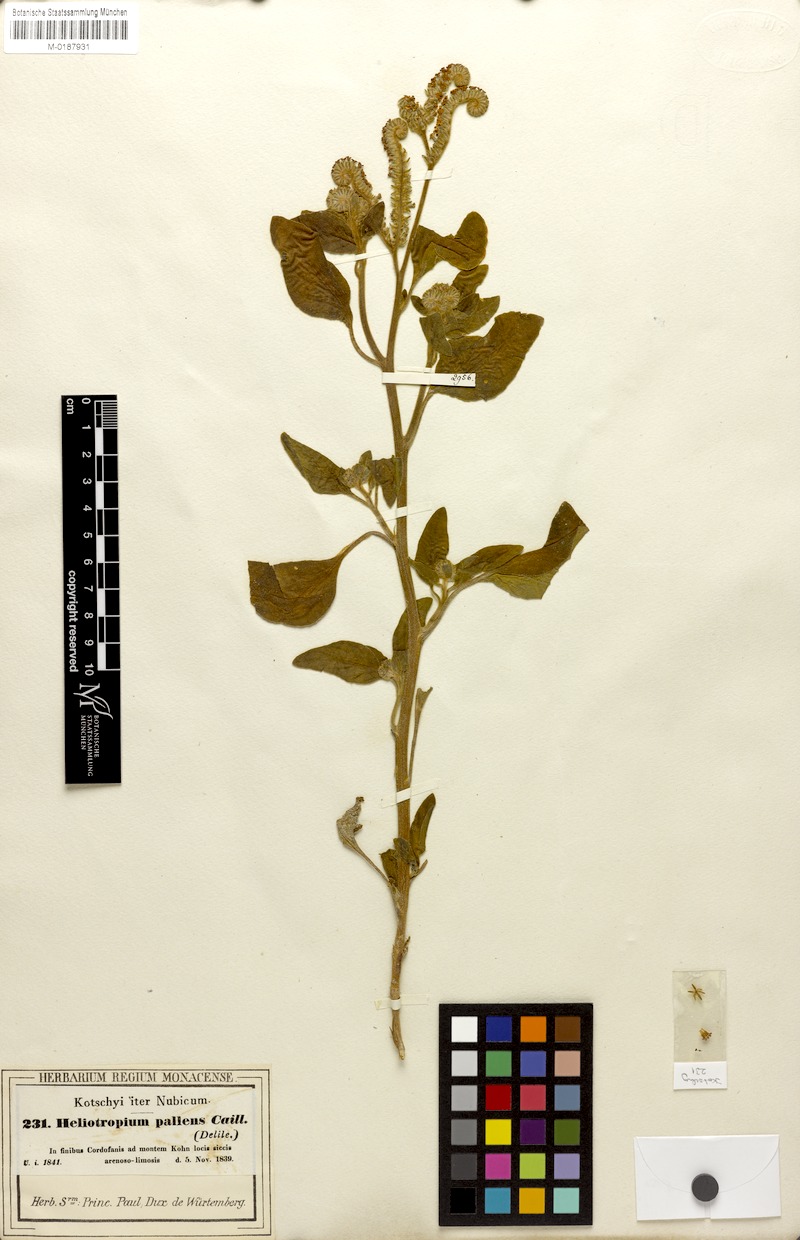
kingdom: Plantae
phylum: Tracheophyta
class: Magnoliopsida
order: Boraginales
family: Heliotropiaceae
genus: Heliotropium
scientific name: Heliotropium aegyptiacum
